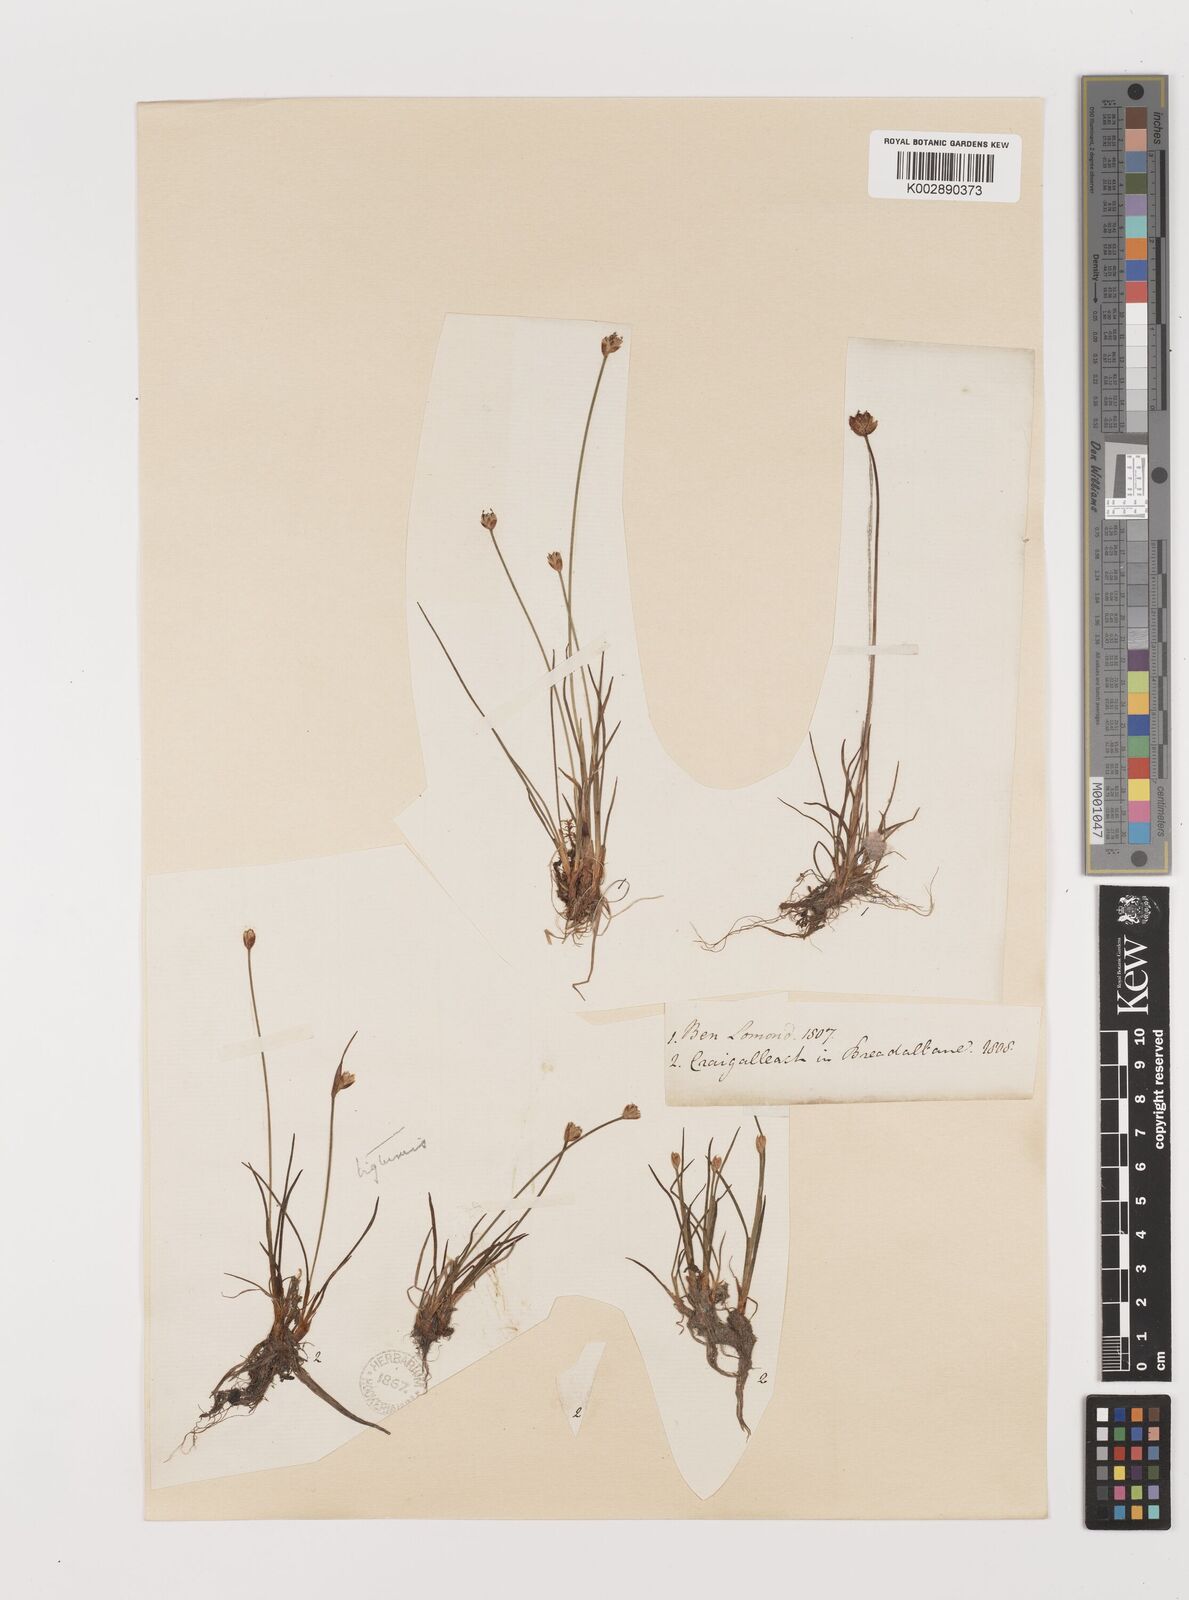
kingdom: Plantae
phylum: Tracheophyta
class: Liliopsida
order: Poales
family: Juncaceae
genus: Juncus
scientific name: Juncus triglumis
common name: Three-flowered rush
